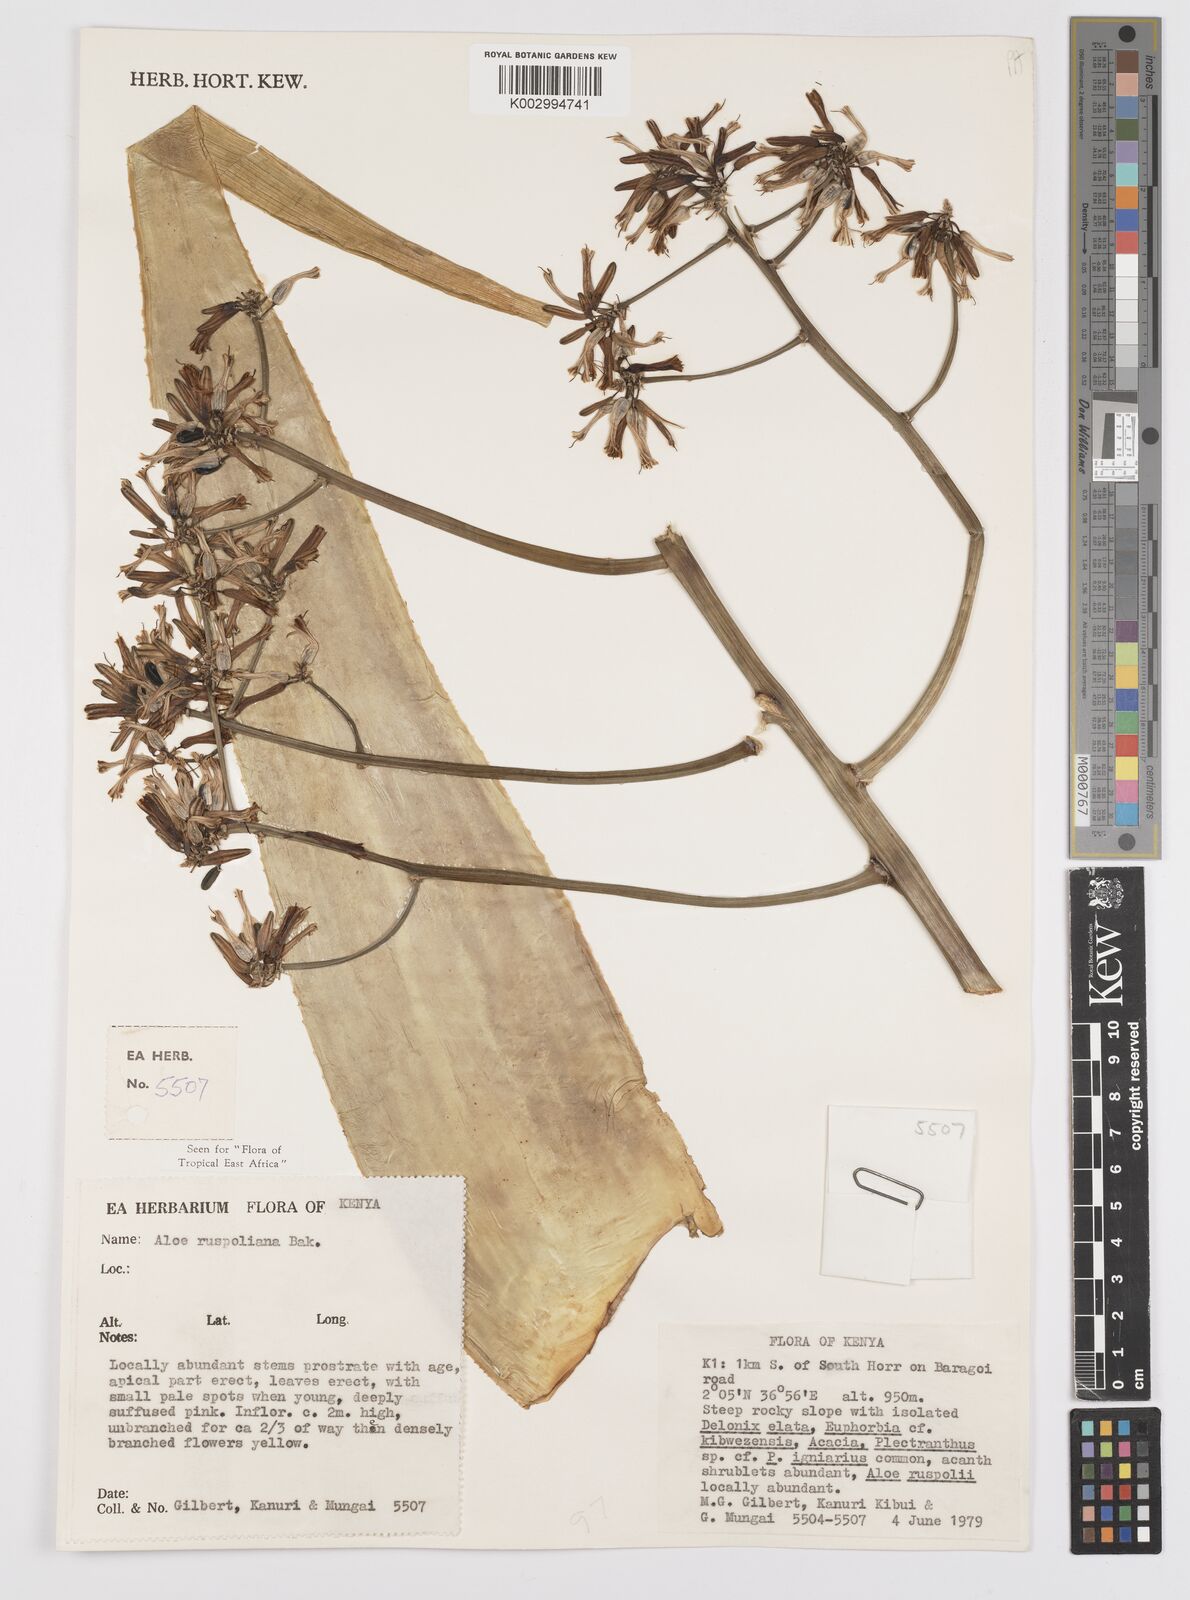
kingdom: Plantae
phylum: Tracheophyta
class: Liliopsida
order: Asparagales
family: Asphodelaceae
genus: Aloe
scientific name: Aloe ruspoliana
